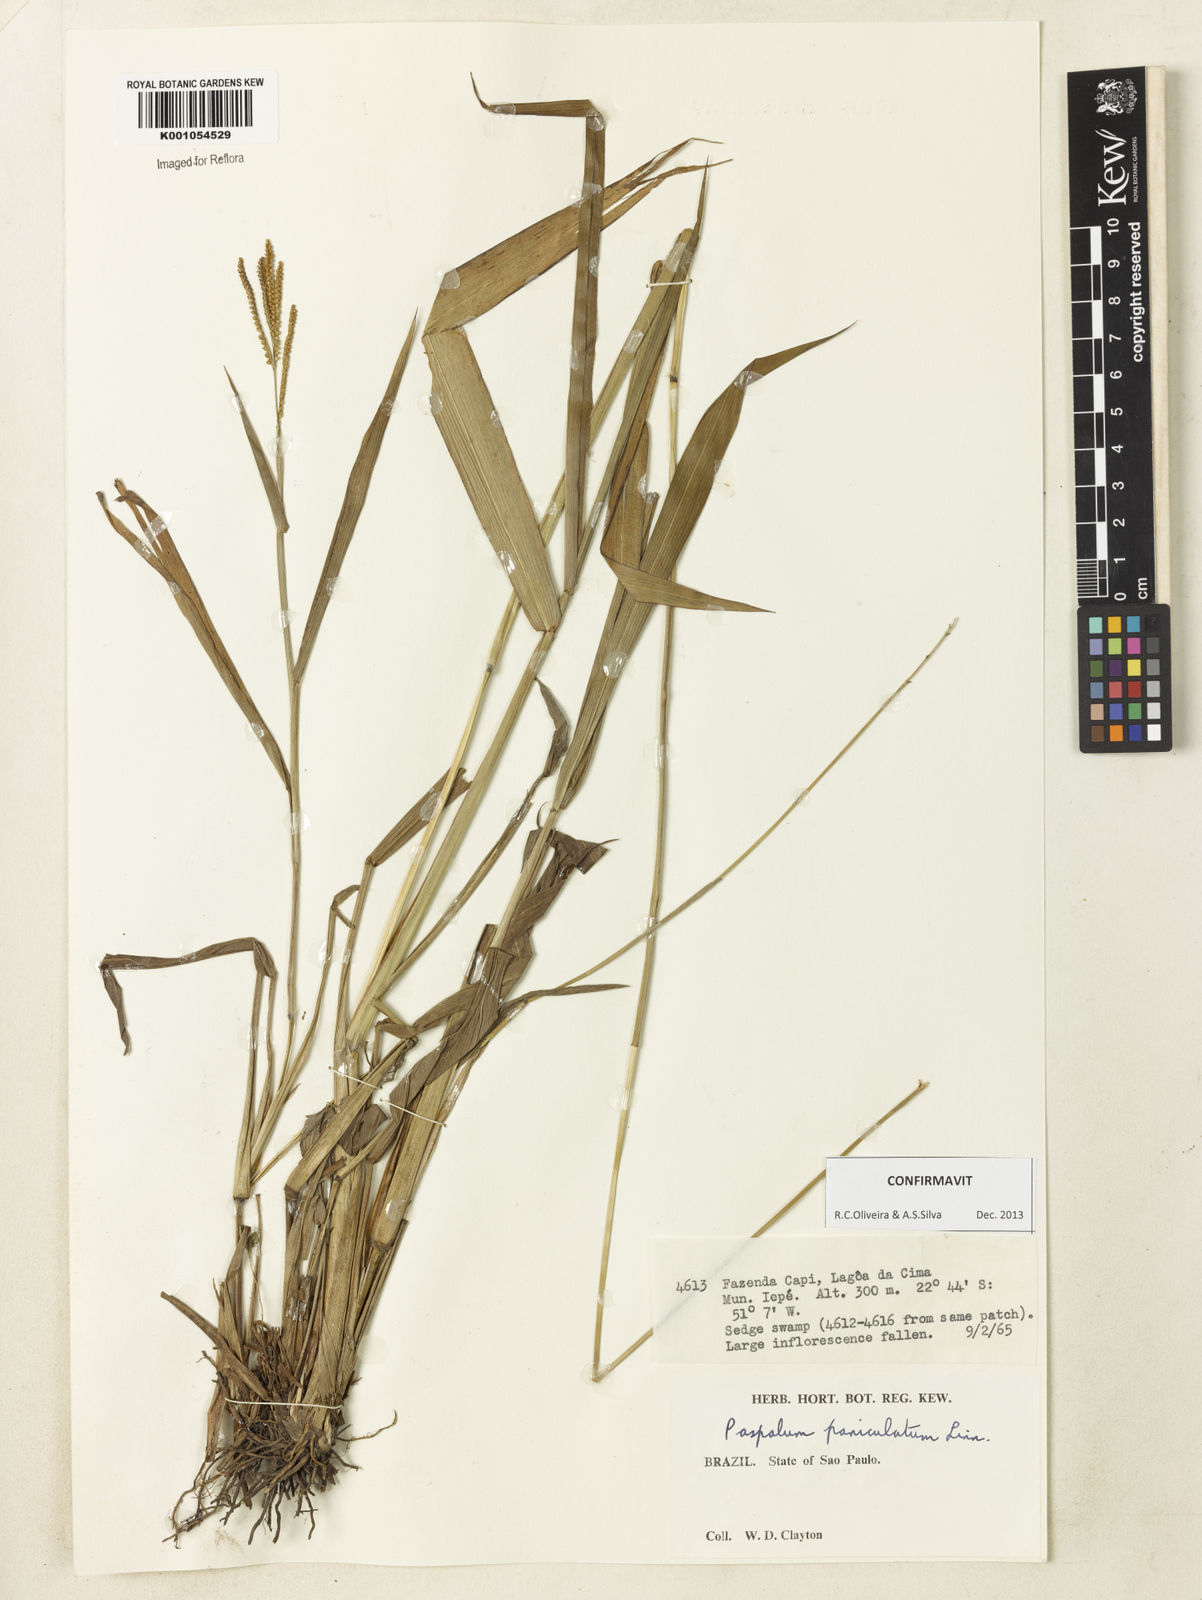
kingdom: Plantae
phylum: Tracheophyta
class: Liliopsida
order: Poales
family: Poaceae
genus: Paspalum
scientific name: Paspalum paniculatum
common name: Arrocillo
